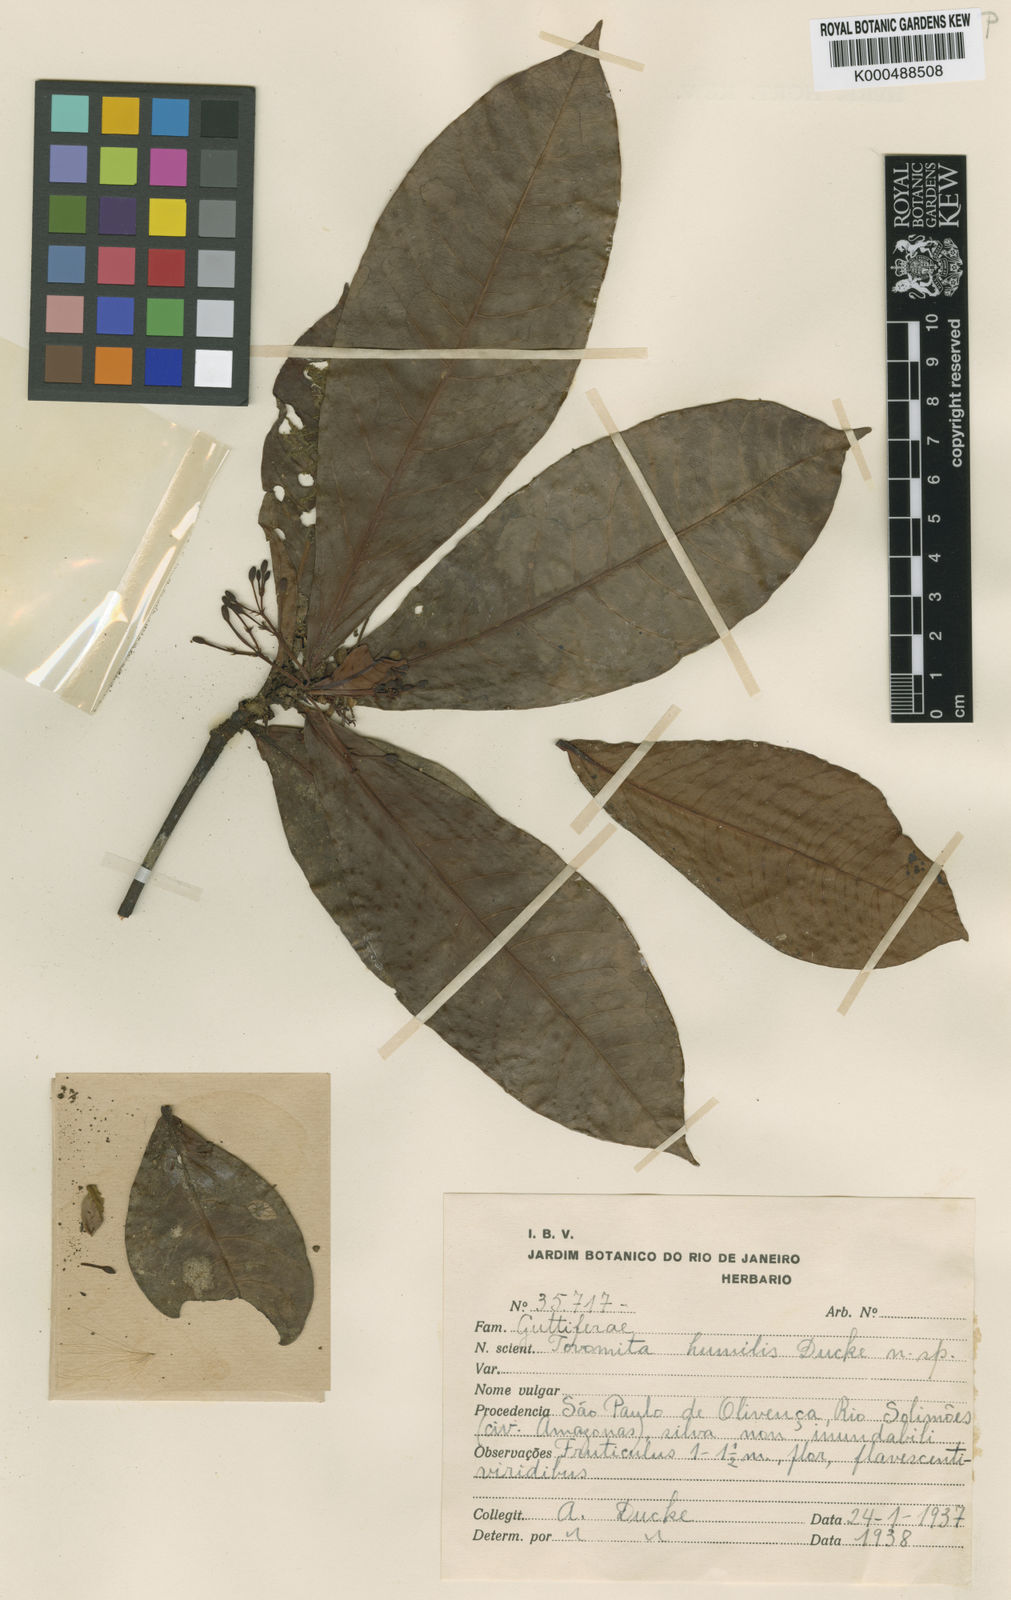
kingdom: Plantae
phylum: Tracheophyta
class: Magnoliopsida
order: Malpighiales
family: Clusiaceae
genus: Tovomita
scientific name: Tovomita humilis
